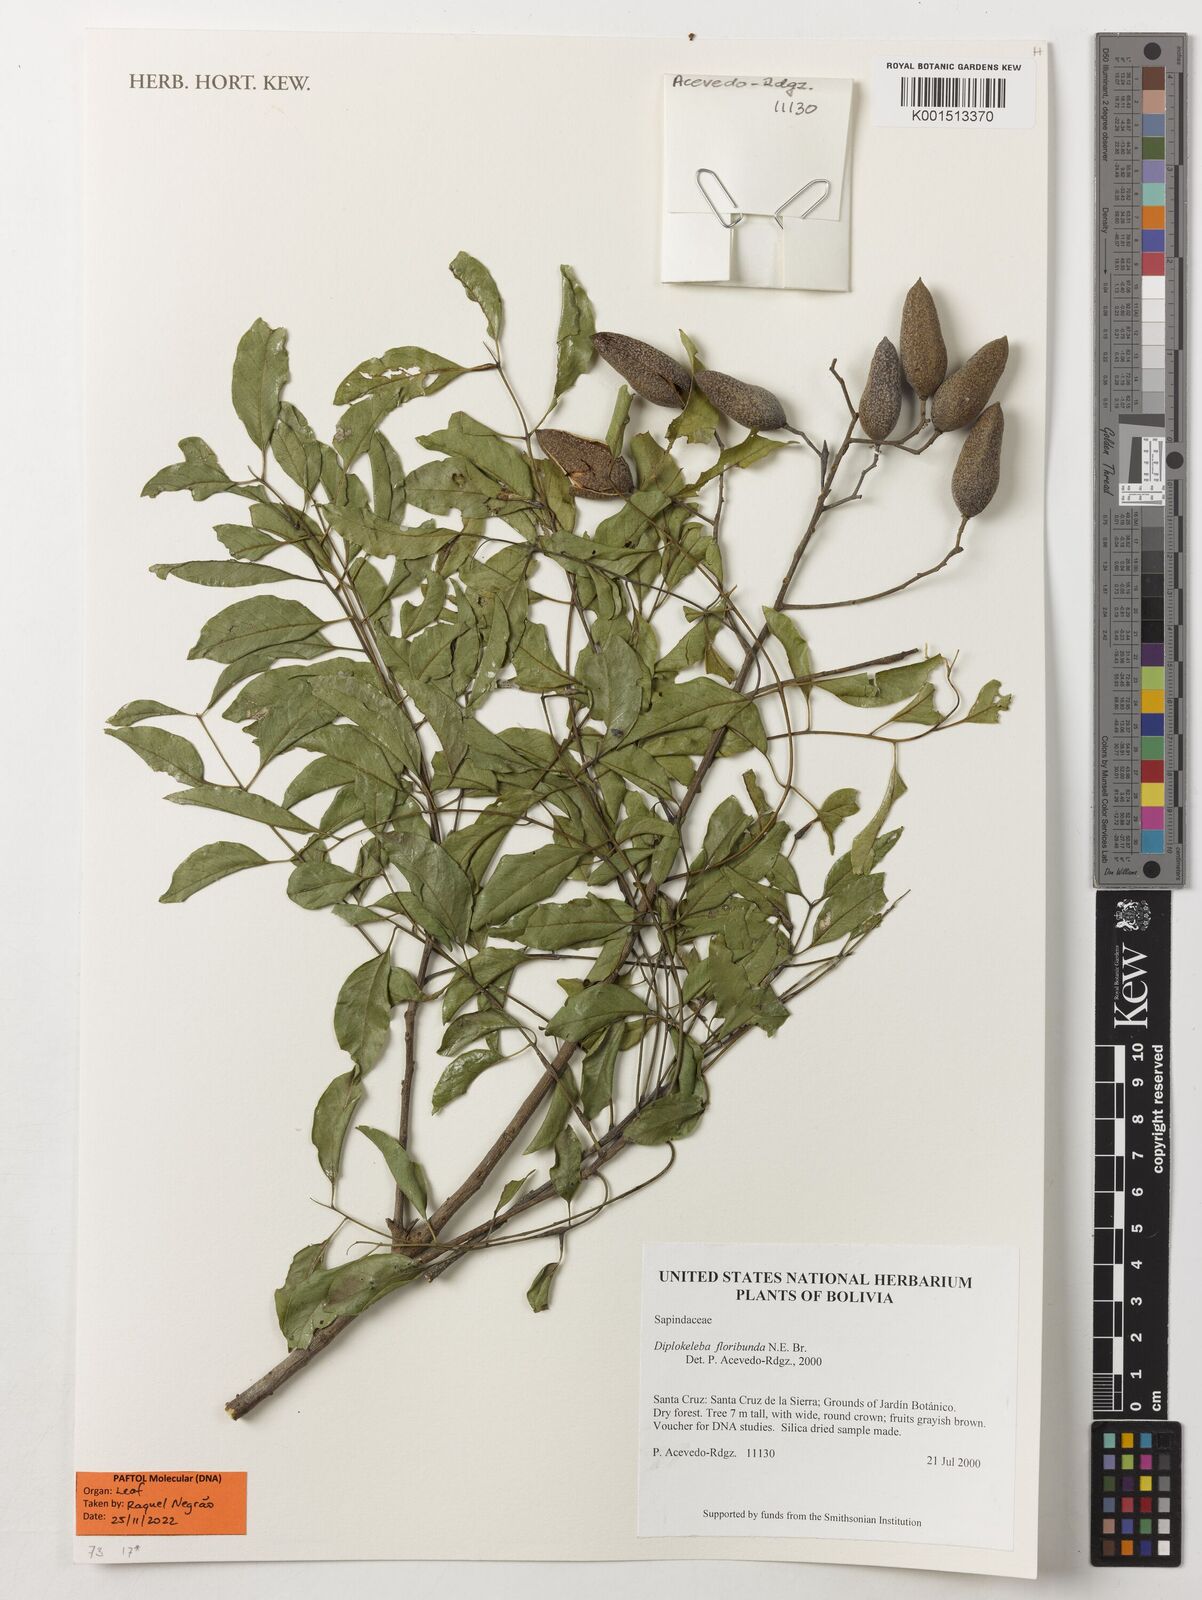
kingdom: Plantae
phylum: Tracheophyta
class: Magnoliopsida
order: Sapindales
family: Sapindaceae
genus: Diplokeleba
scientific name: Diplokeleba floribunda
